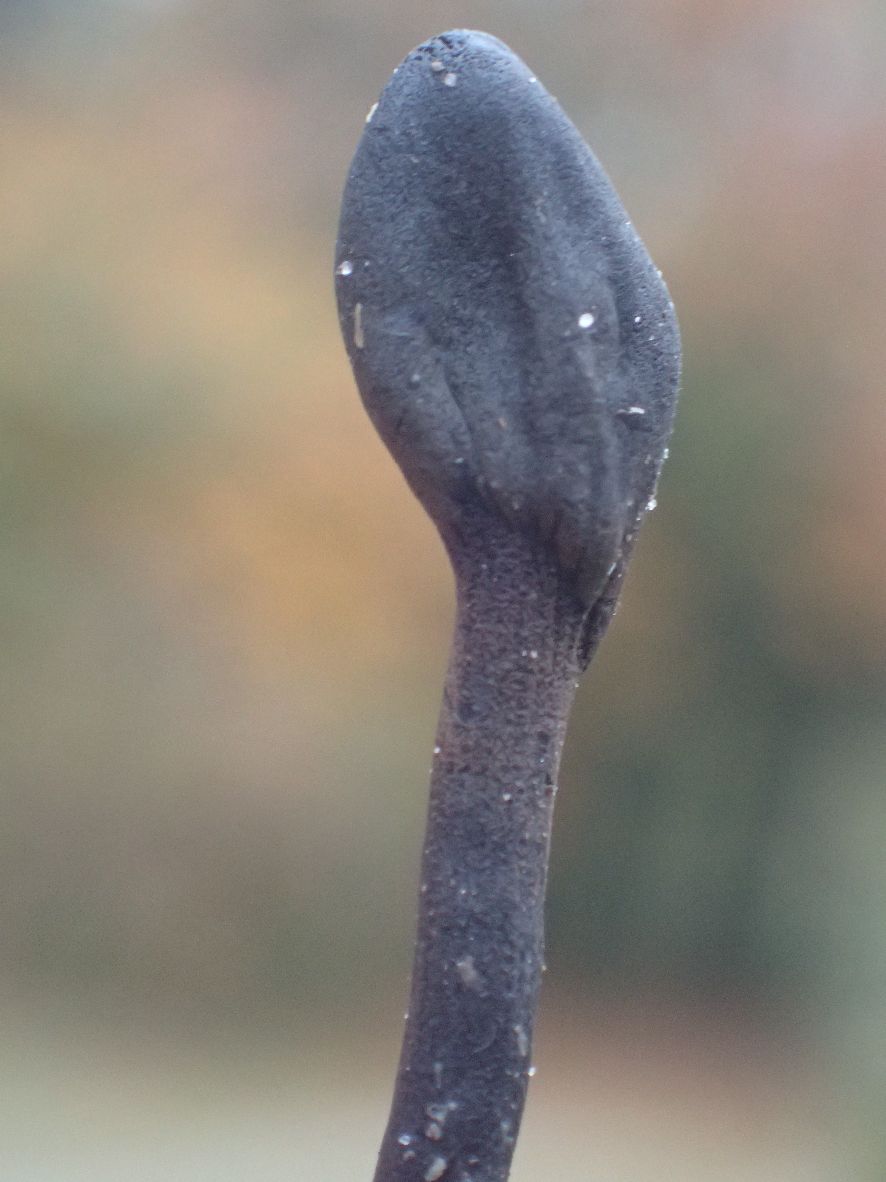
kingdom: Fungi
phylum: Ascomycota
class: Geoglossomycetes
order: Geoglossales
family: Geoglossaceae
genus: Geoglossum
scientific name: Geoglossum umbratile
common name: slank jordtunge
